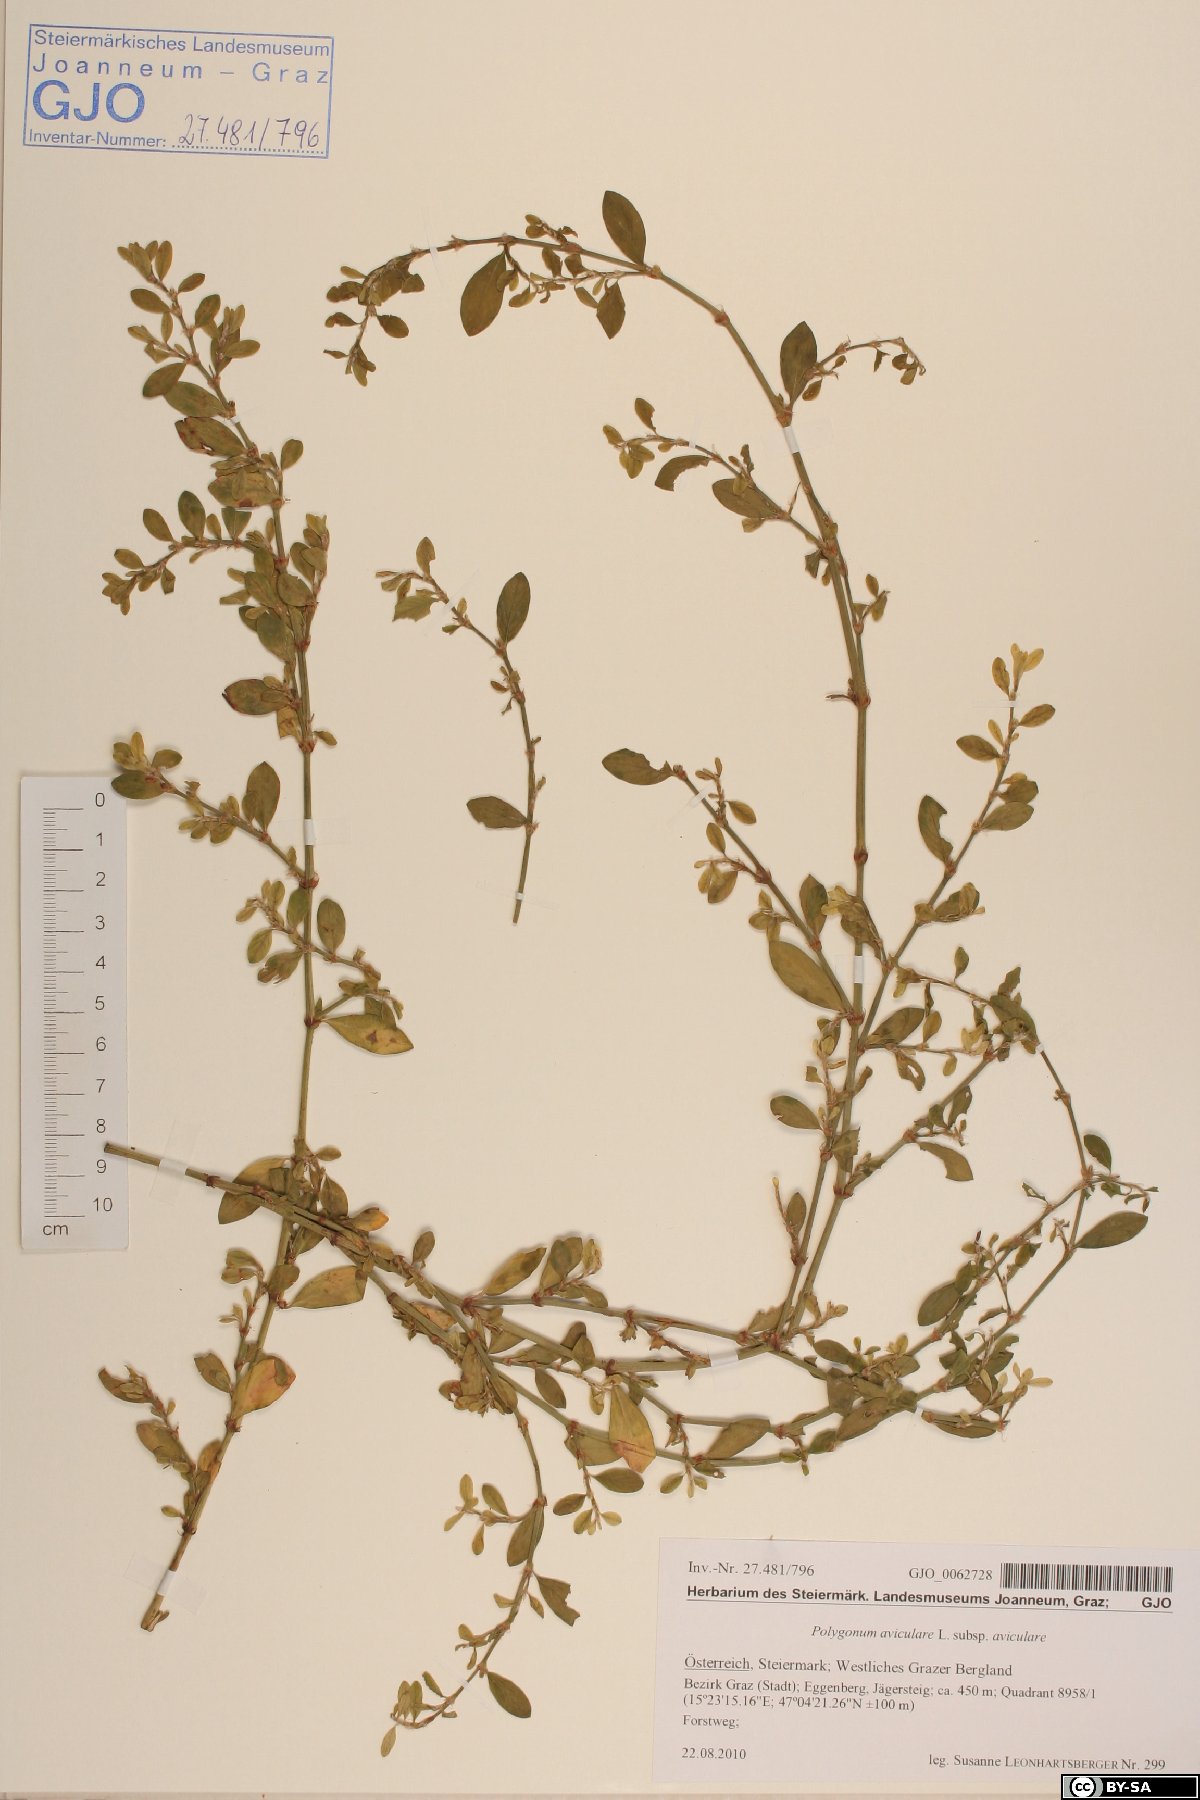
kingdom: Plantae
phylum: Tracheophyta
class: Magnoliopsida
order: Caryophyllales
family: Polygonaceae
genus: Polygonum
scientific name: Polygonum aviculare
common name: Prostrate knotweed
